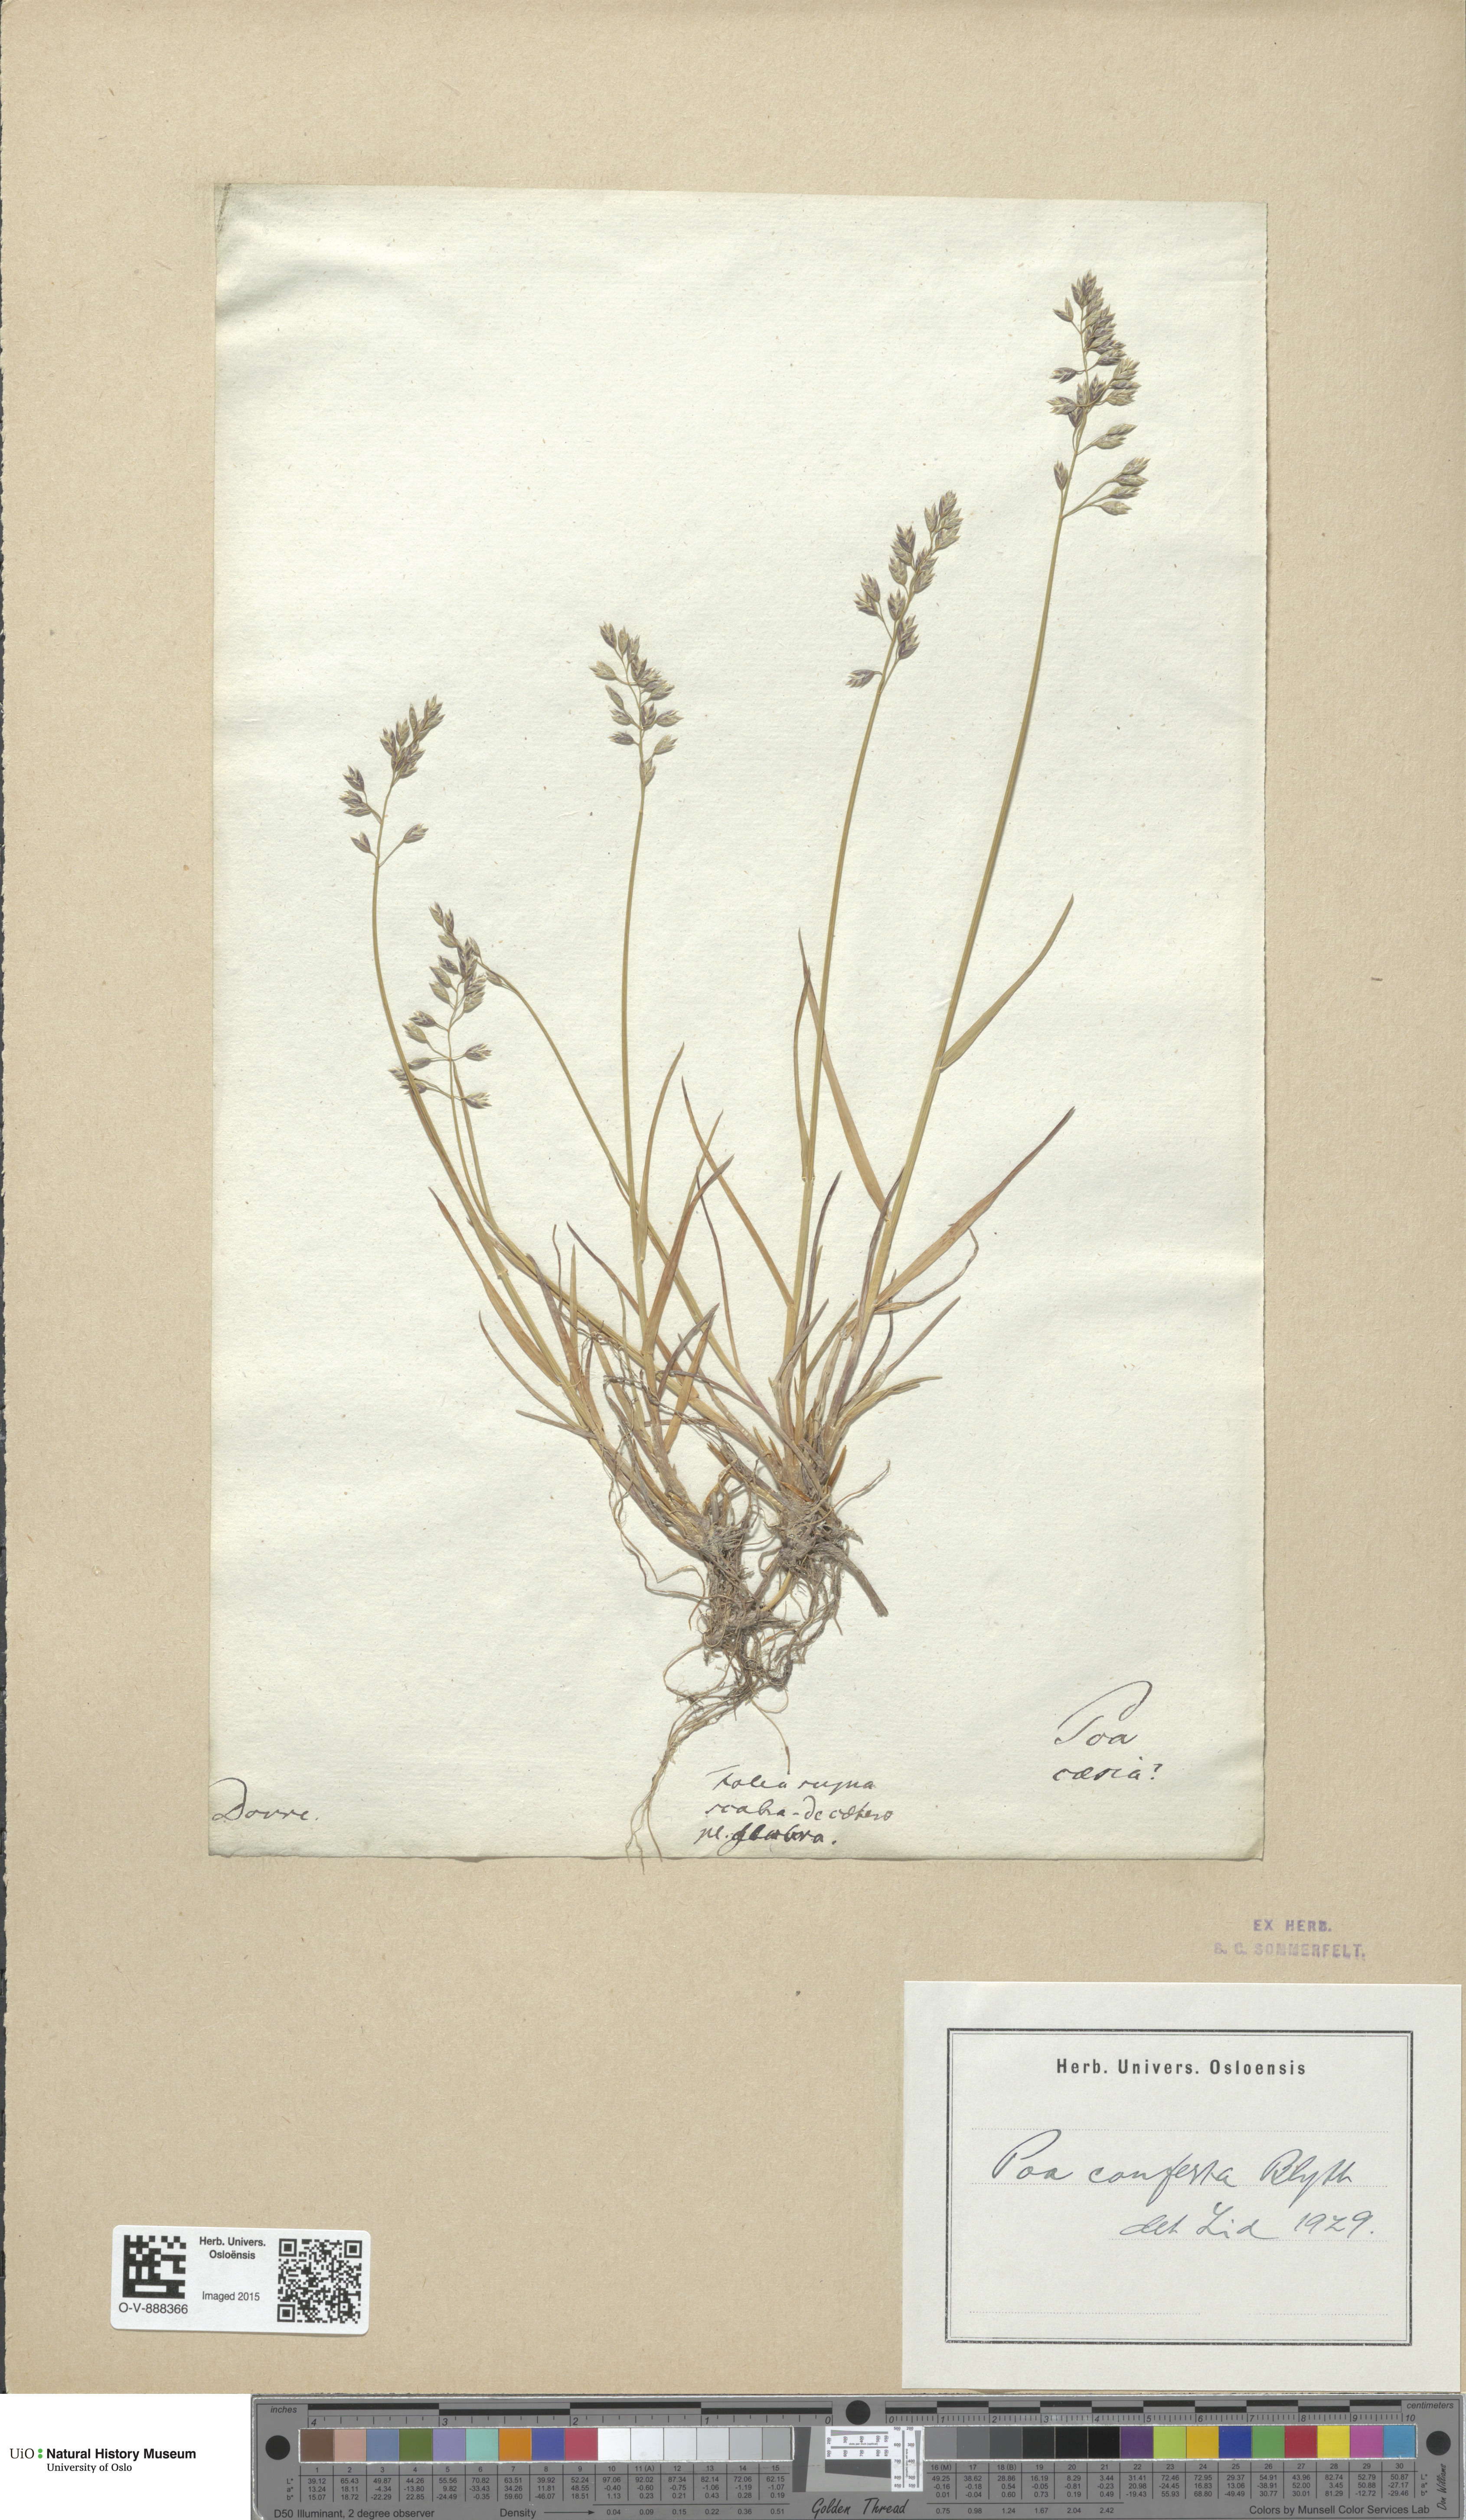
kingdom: Plantae
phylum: Tracheophyta
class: Liliopsida
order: Poales
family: Poaceae
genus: Poa
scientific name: Poa glauca
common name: Glaucous bluegrass
